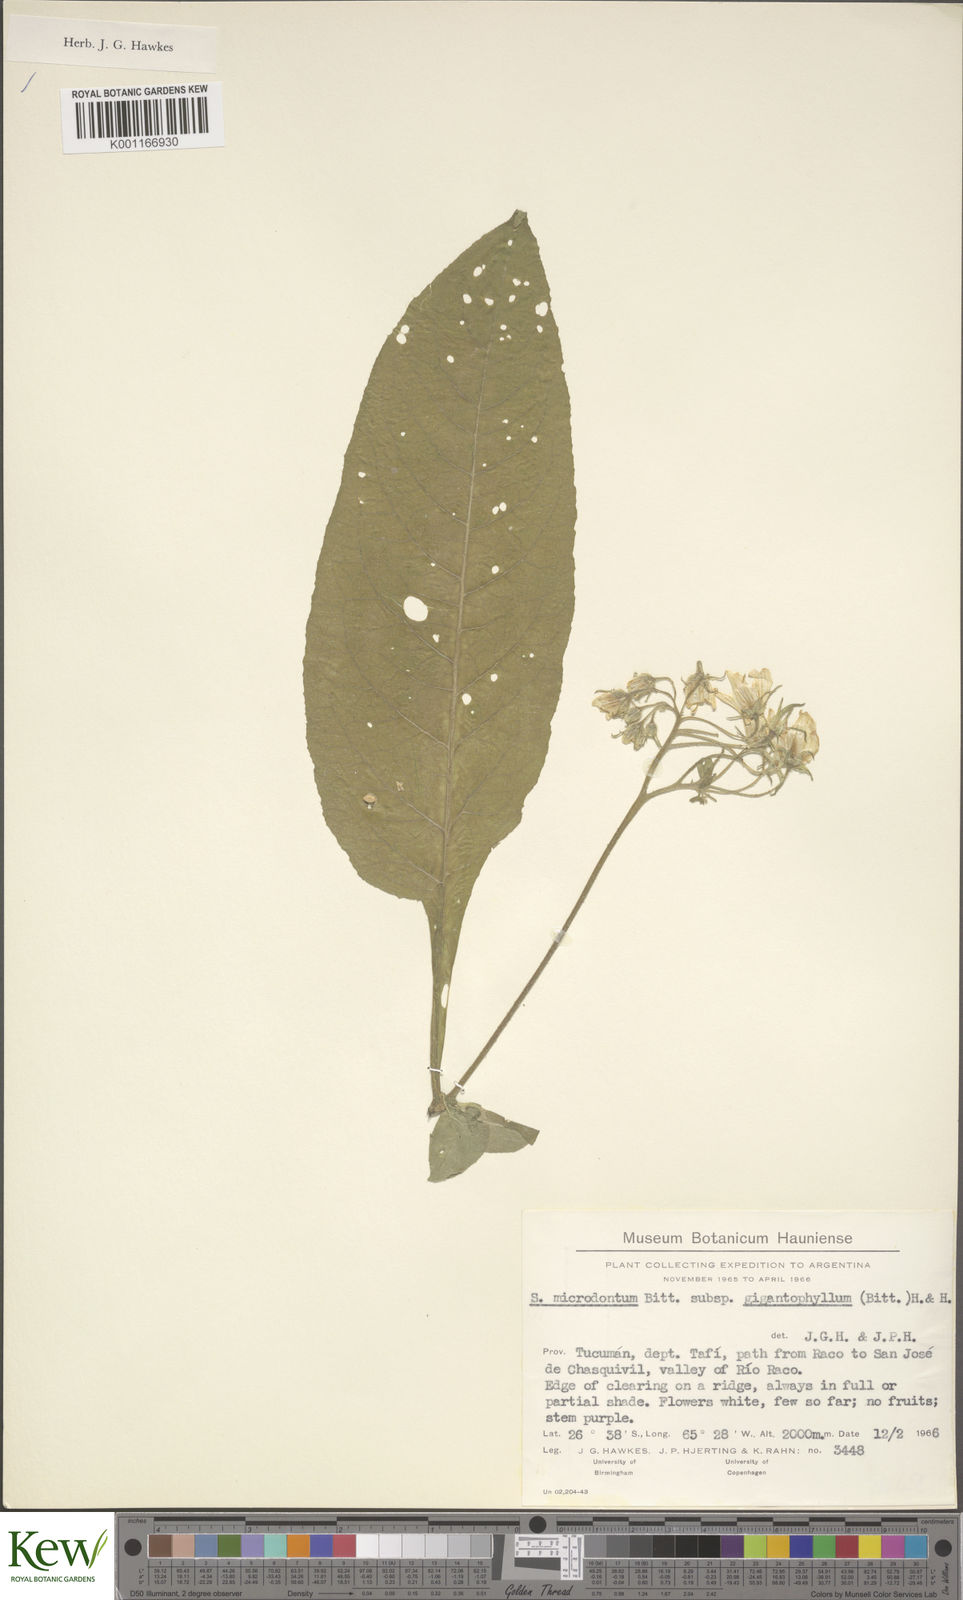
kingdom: Plantae
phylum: Tracheophyta
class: Magnoliopsida
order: Solanales
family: Solanaceae
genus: Solanum
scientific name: Solanum microdontum
